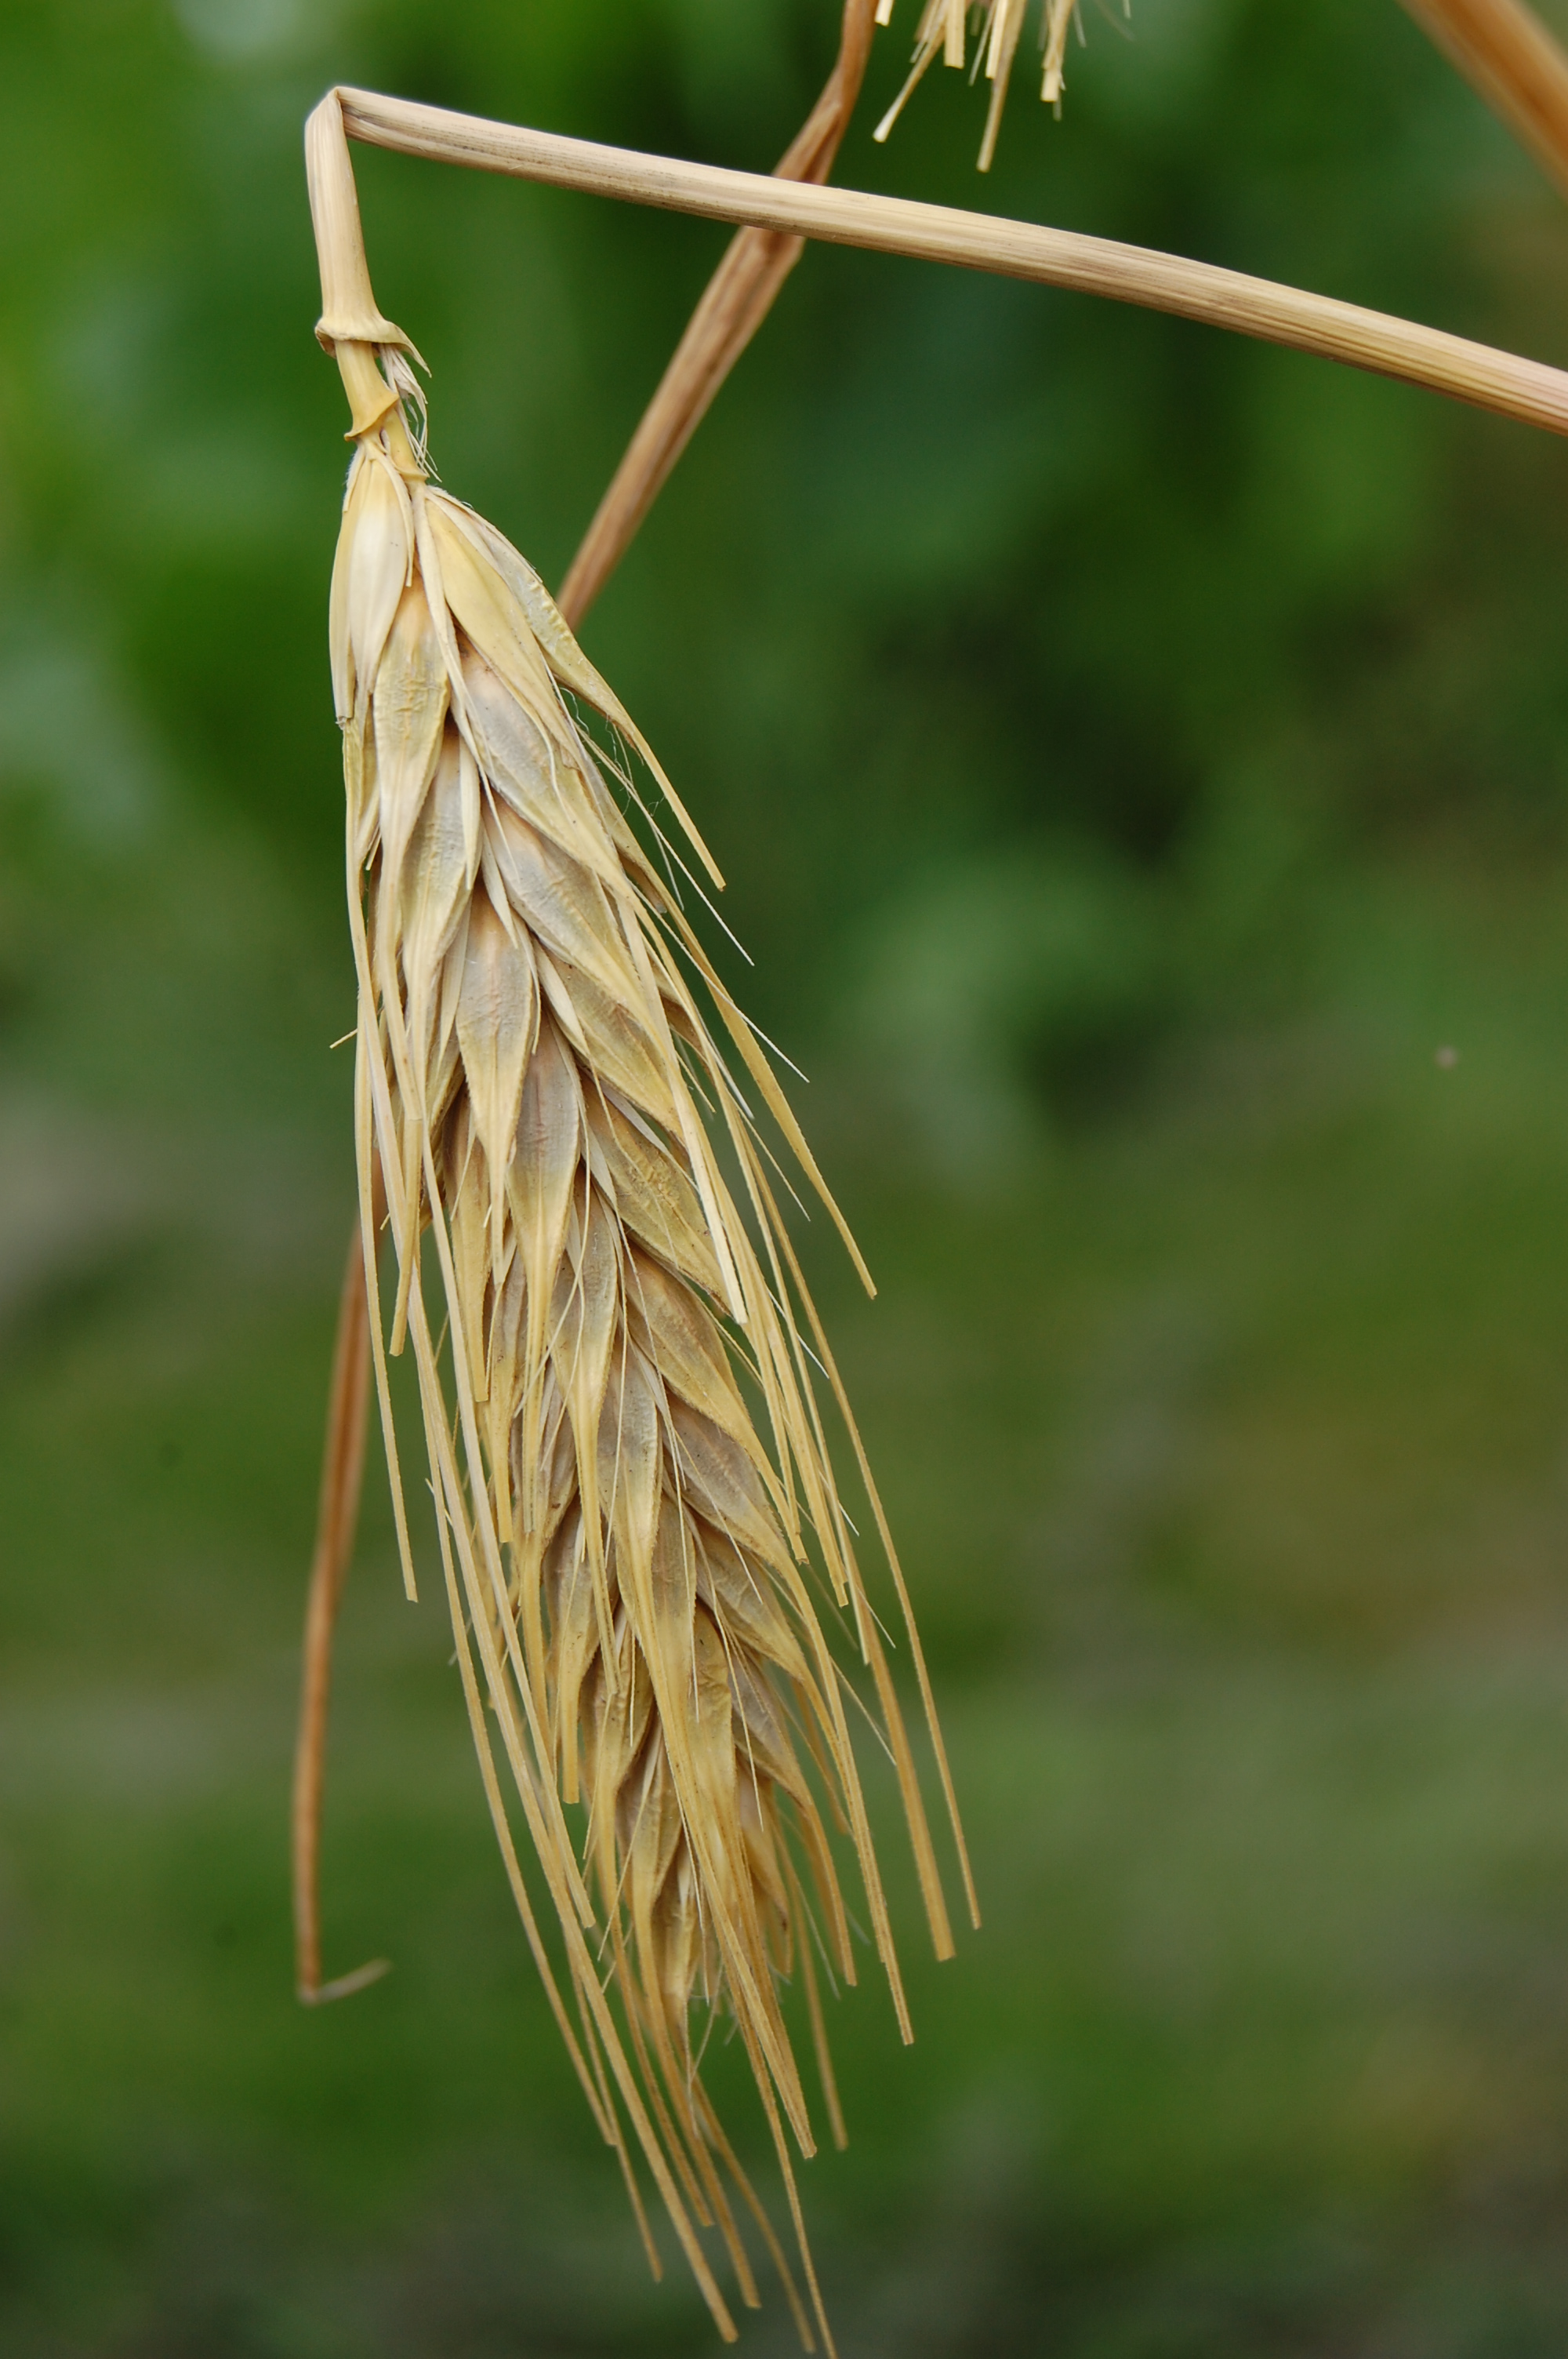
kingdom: Plantae
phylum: Tracheophyta
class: Liliopsida
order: Poales
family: Poaceae
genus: Hordeum
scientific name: Hordeum vulgare
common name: Common barley
